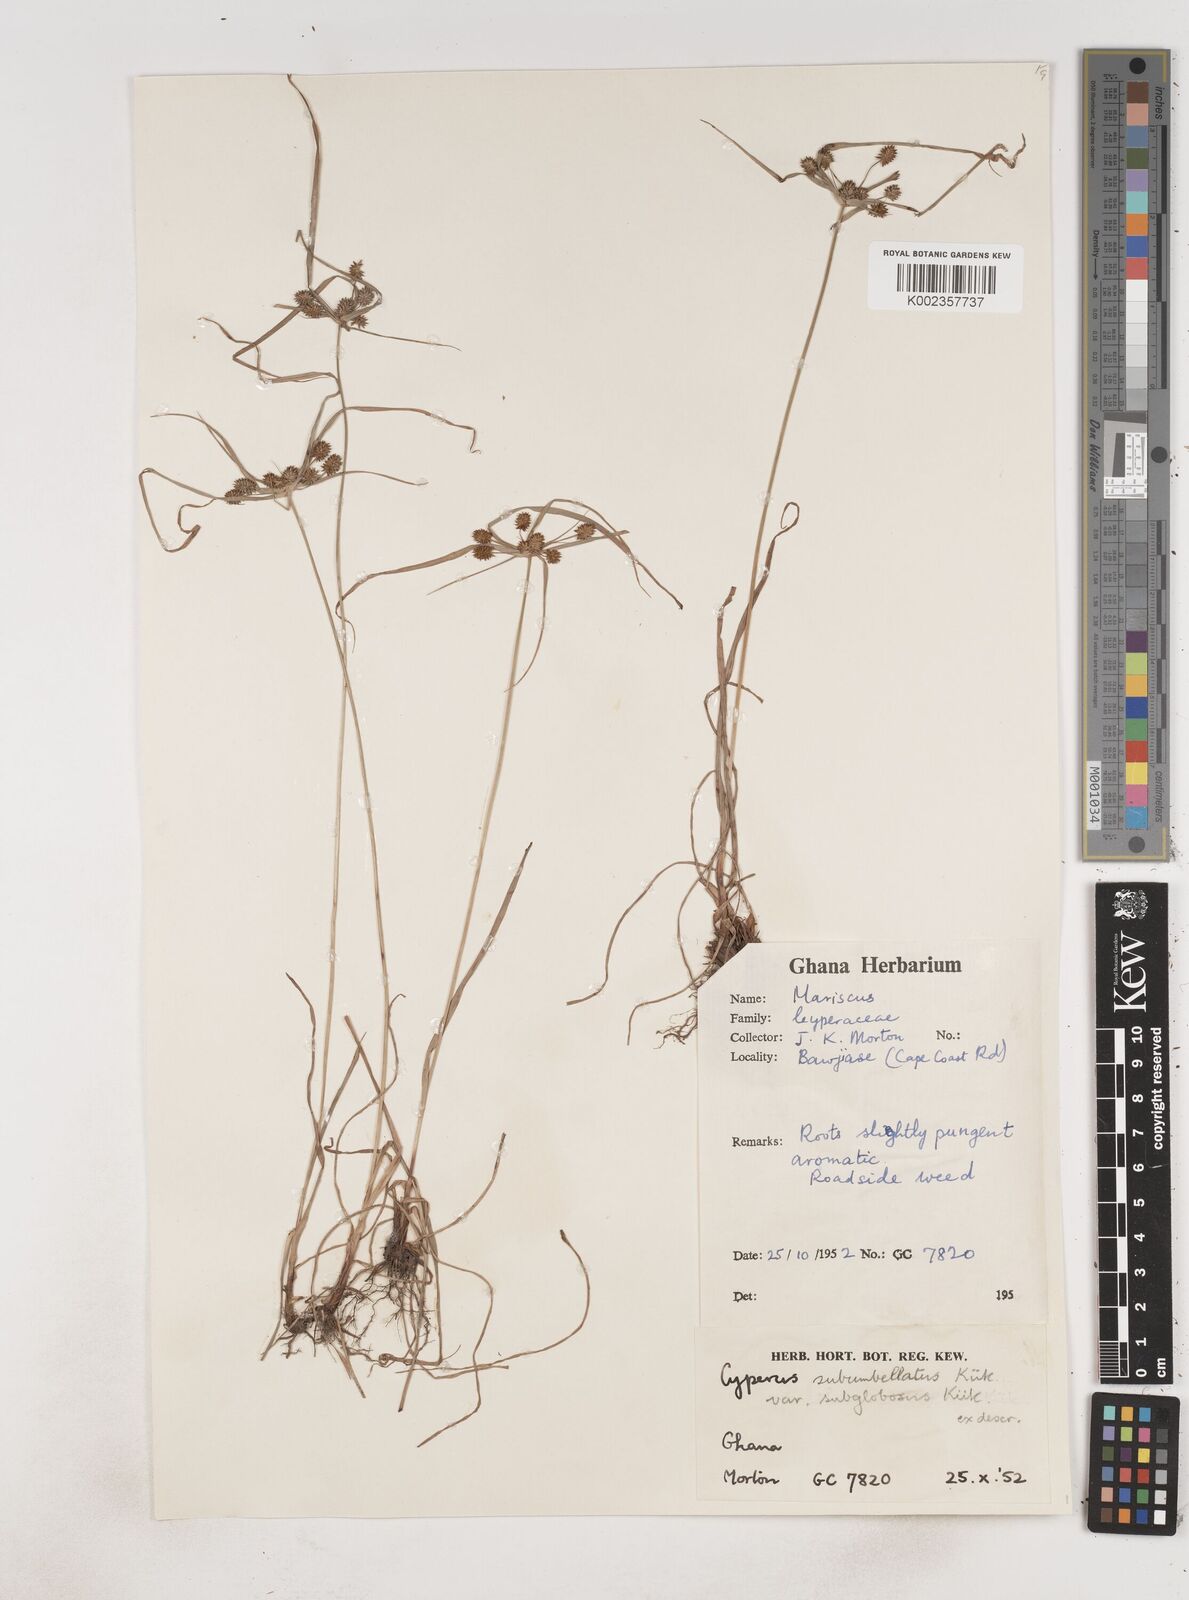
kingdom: Plantae
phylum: Tracheophyta
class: Liliopsida
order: Poales
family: Cyperaceae
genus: Cyperus
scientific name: Cyperus sublimis
